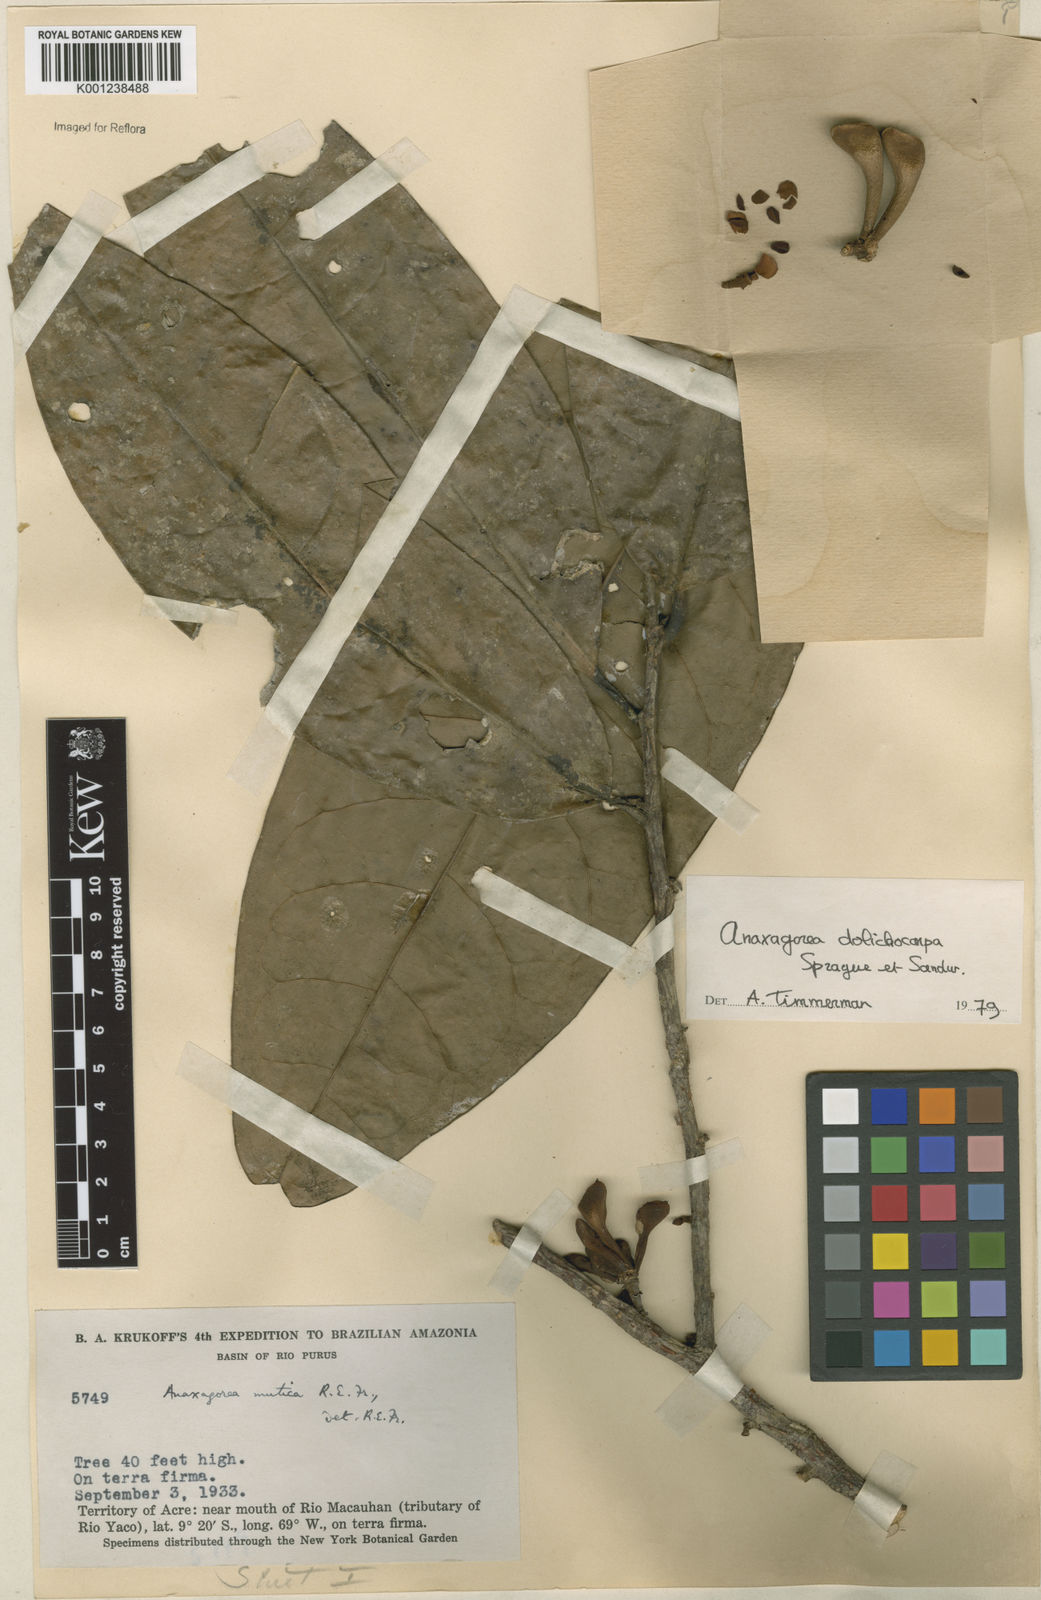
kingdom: Plantae
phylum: Tracheophyta
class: Magnoliopsida
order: Magnoliales
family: Annonaceae
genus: Anaxagorea
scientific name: Anaxagorea dolichocarpa
